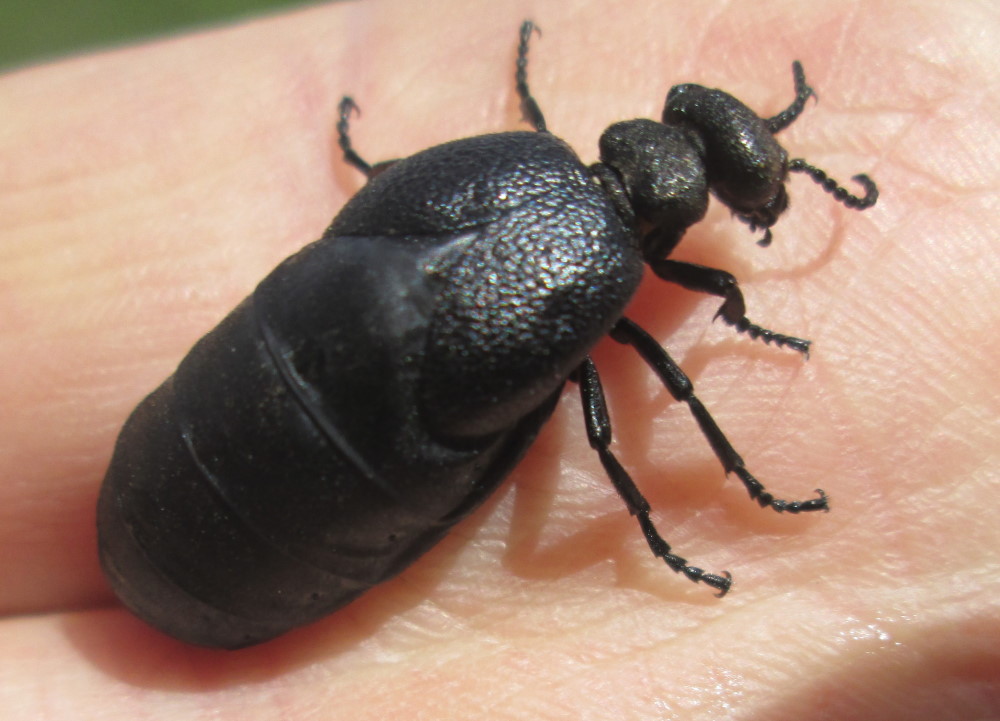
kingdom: Animalia
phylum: Arthropoda
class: Insecta
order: Coleoptera
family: Meloidae
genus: Meloe
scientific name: Meloe violaceus
